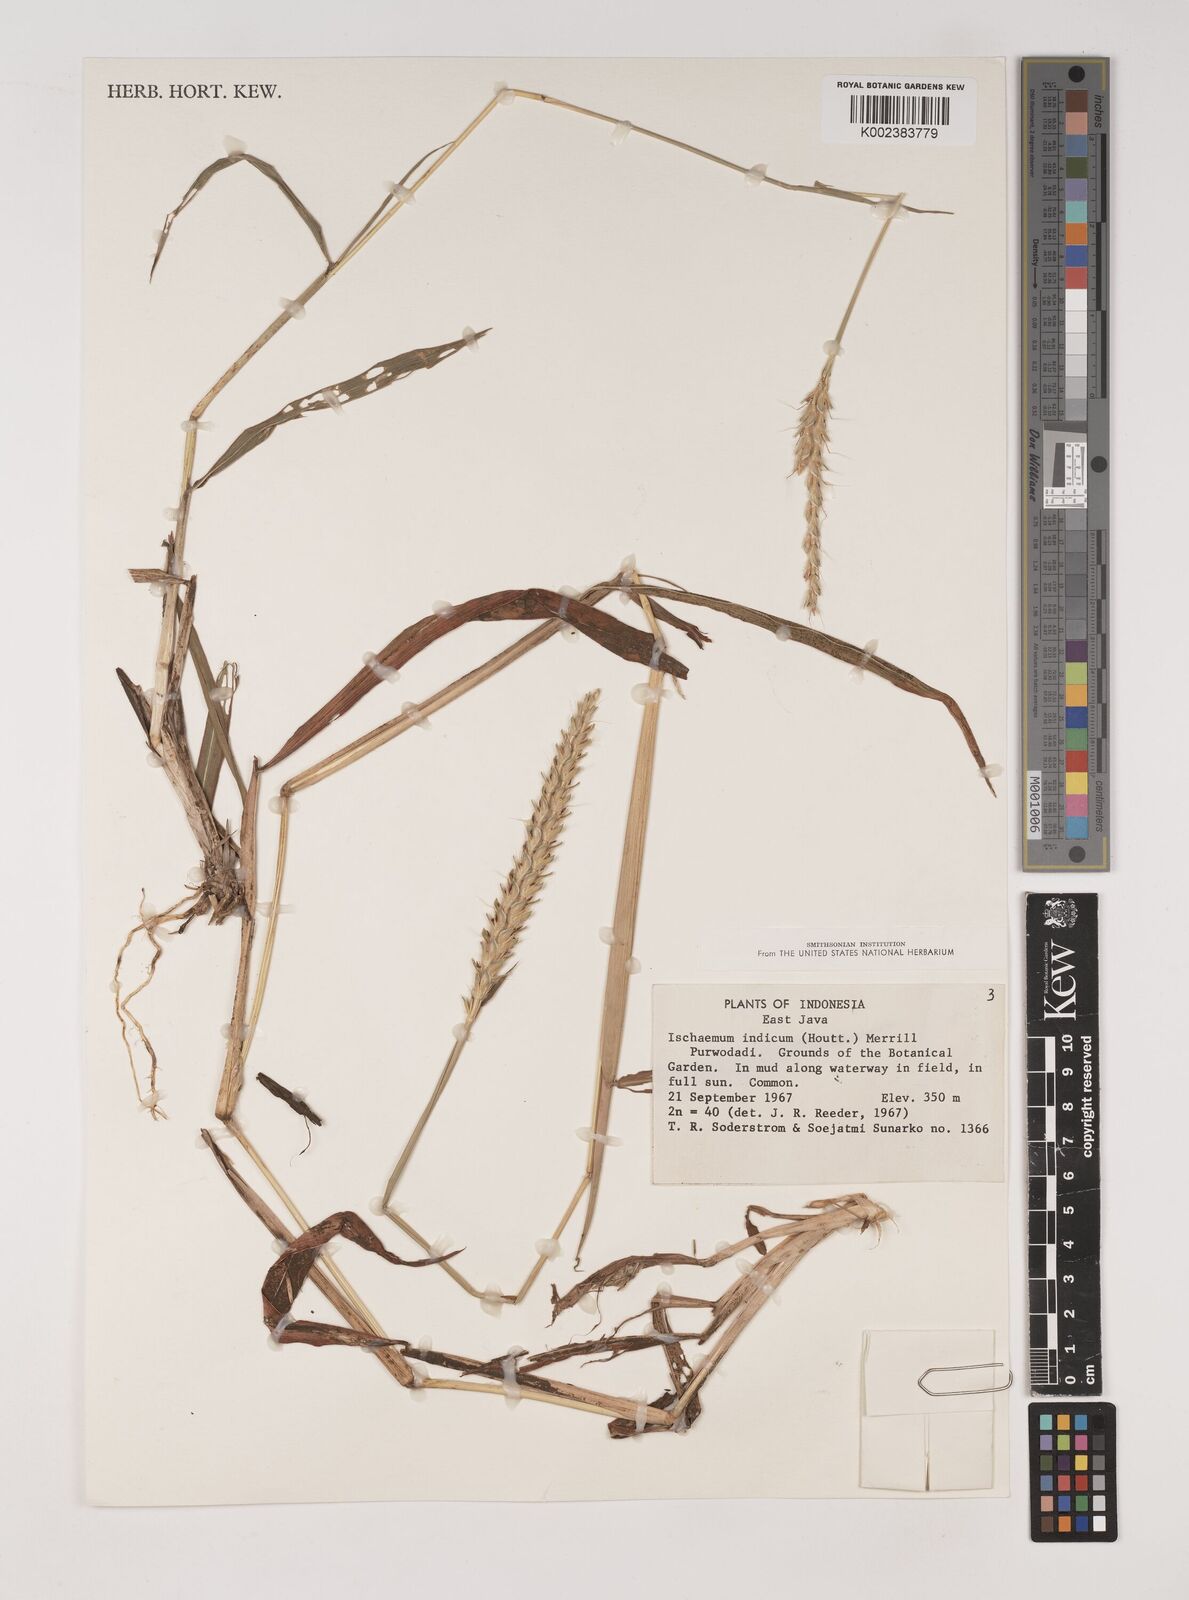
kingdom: Plantae
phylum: Tracheophyta
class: Liliopsida
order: Poales
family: Poaceae
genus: Polytrias
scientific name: Polytrias indica
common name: Indian murainagrass
